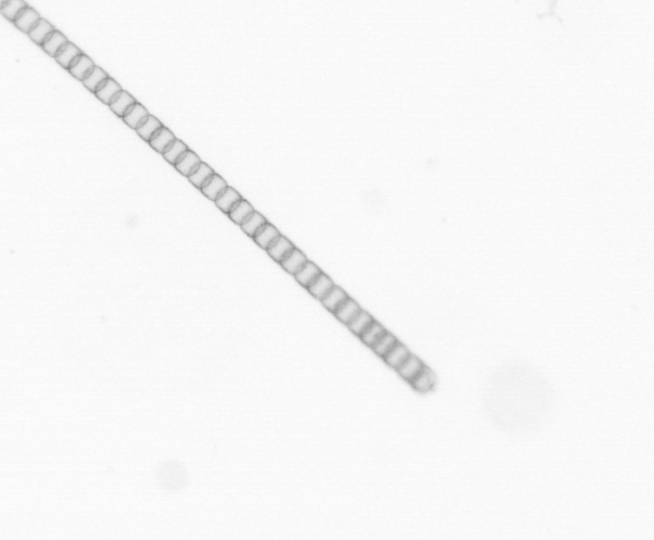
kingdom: Chromista
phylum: Ochrophyta
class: Bacillariophyceae
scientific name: Bacillariophyceae
